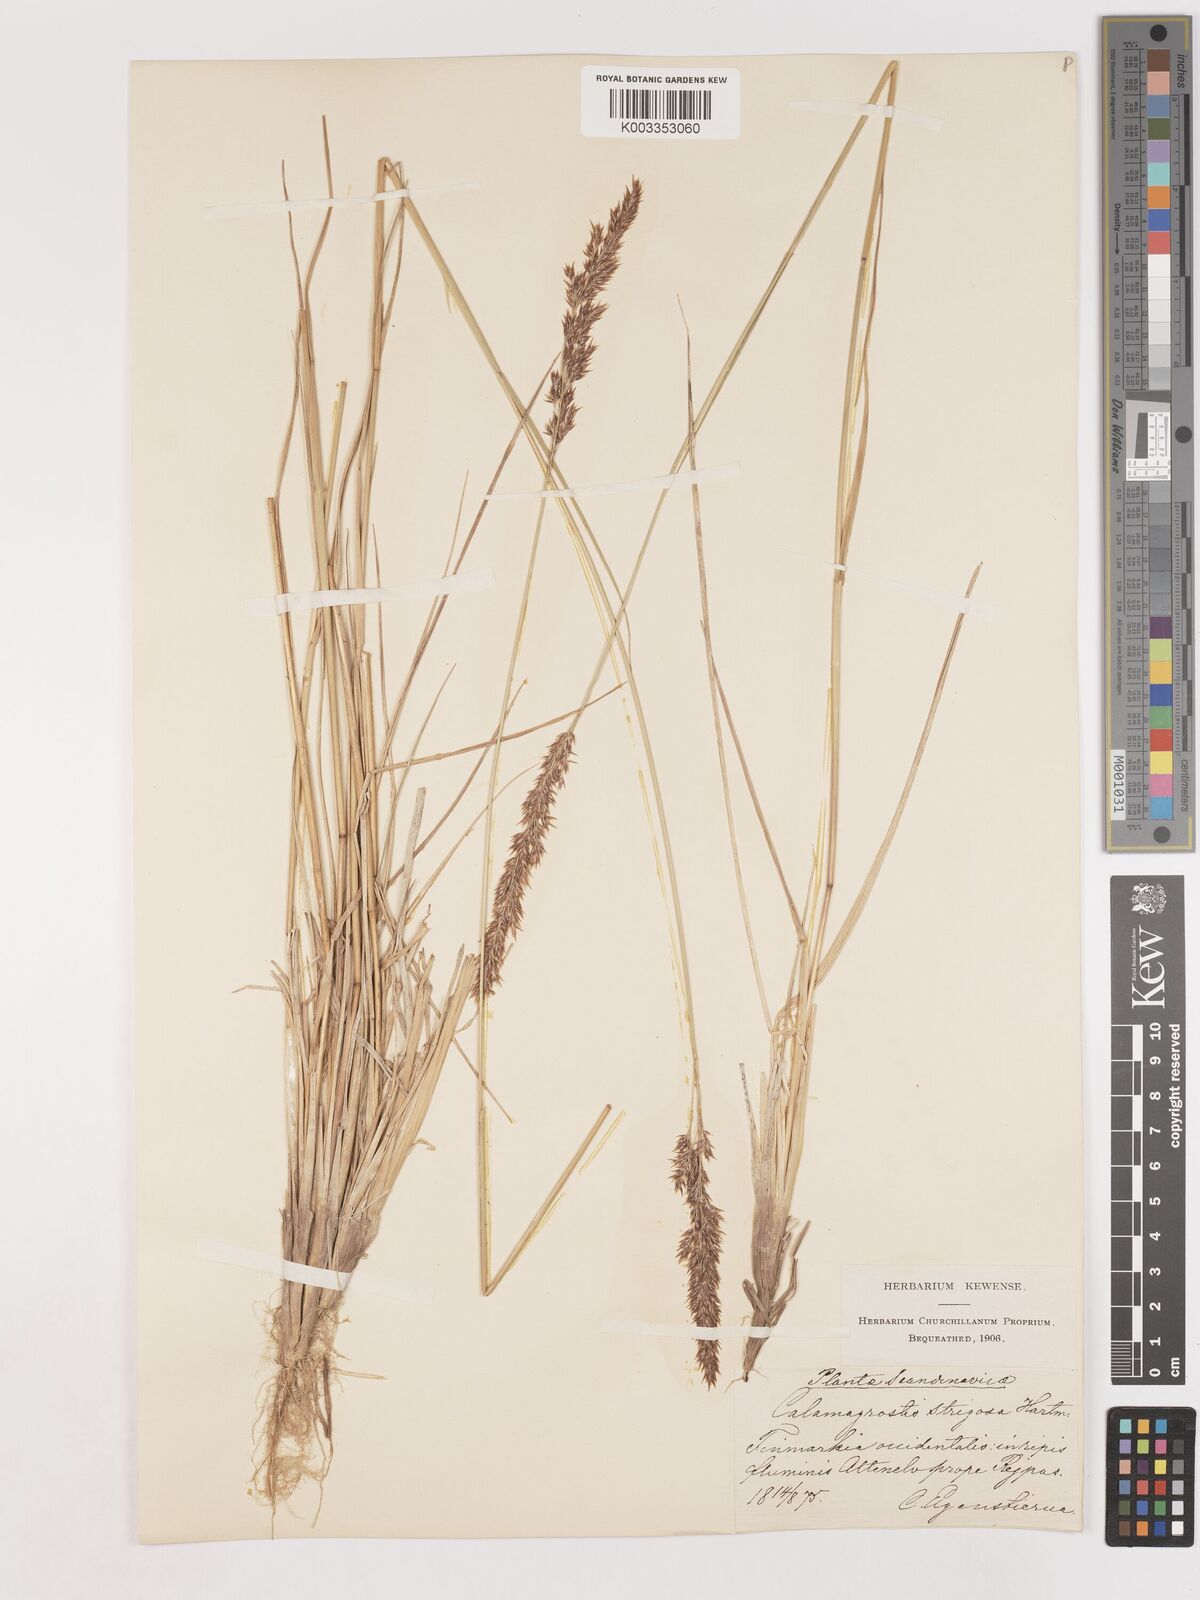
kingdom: Plantae
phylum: Tracheophyta
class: Liliopsida
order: Poales
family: Poaceae
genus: Calamagrostis
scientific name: Calamagrostis epigejos
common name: Wood small-reed
